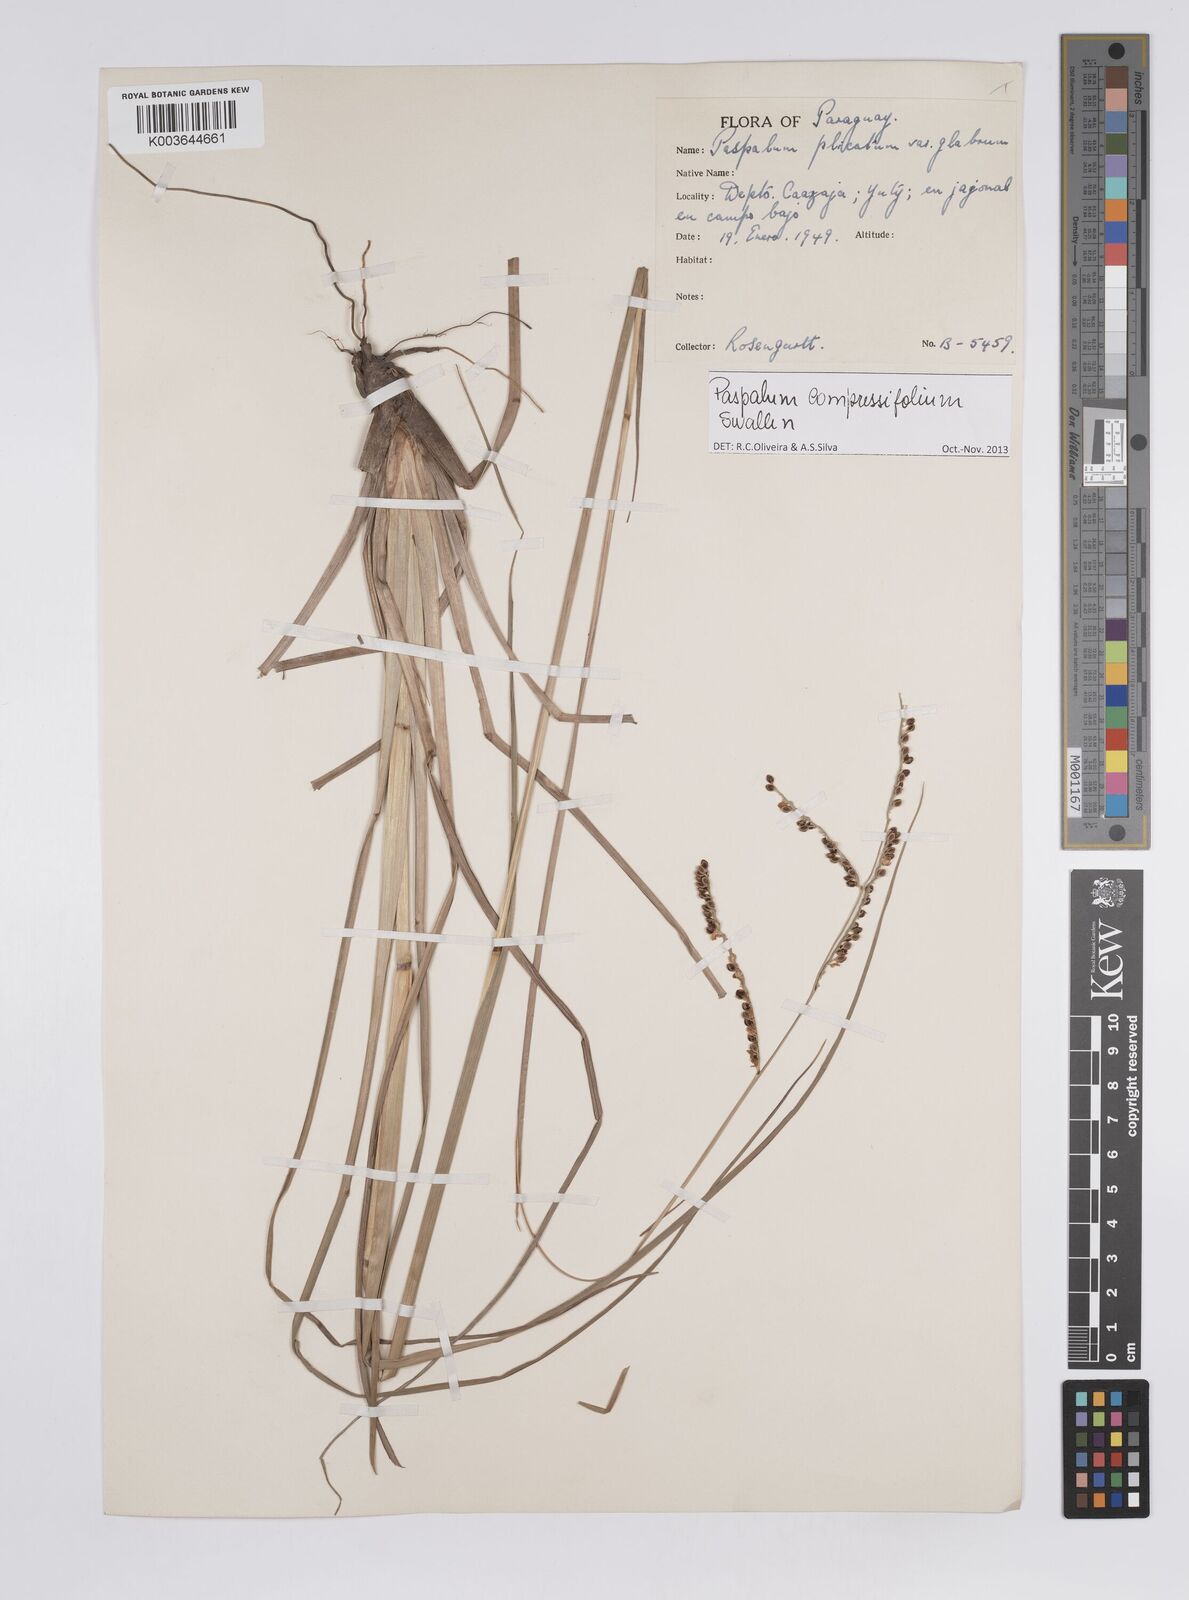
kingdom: Plantae
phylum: Tracheophyta
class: Liliopsida
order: Poales
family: Poaceae
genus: Paspalum
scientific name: Paspalum plicatulum
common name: Top paspalum
